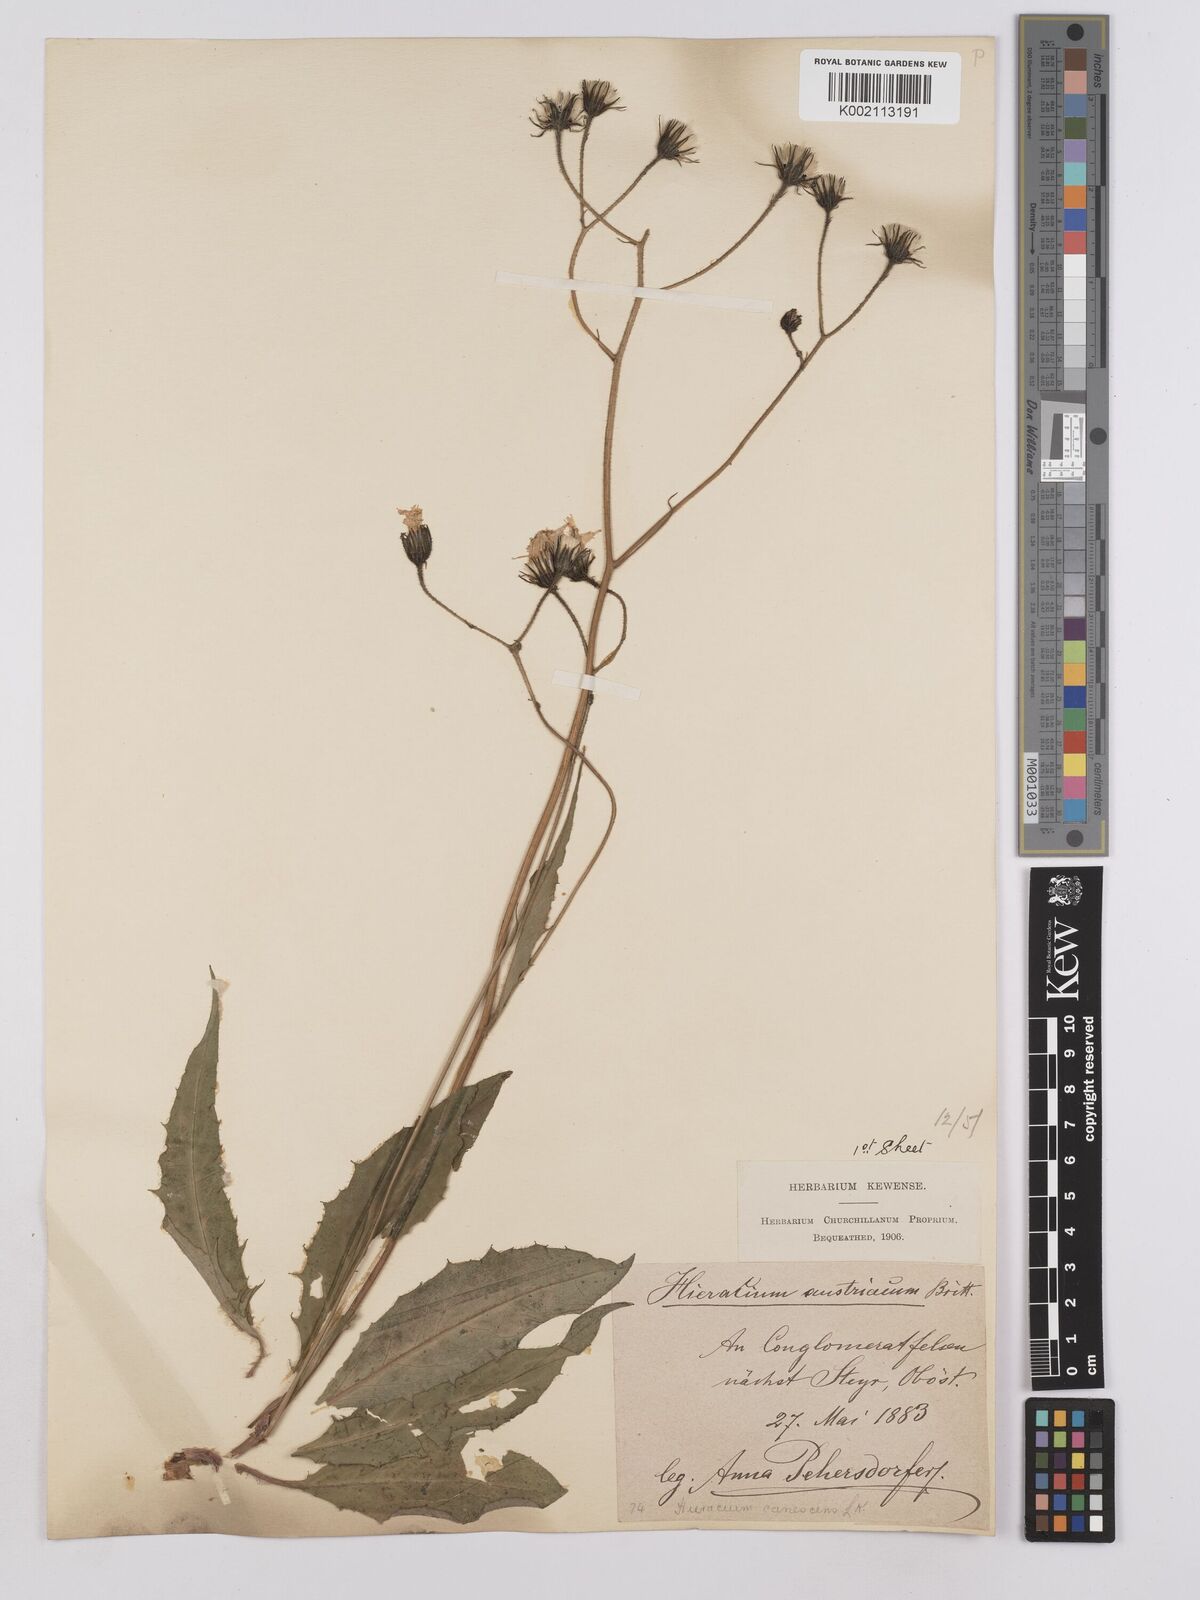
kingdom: Plantae
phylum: Tracheophyta
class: Magnoliopsida
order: Asterales
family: Asteraceae
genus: Crepis
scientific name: Crepis blattarioides
